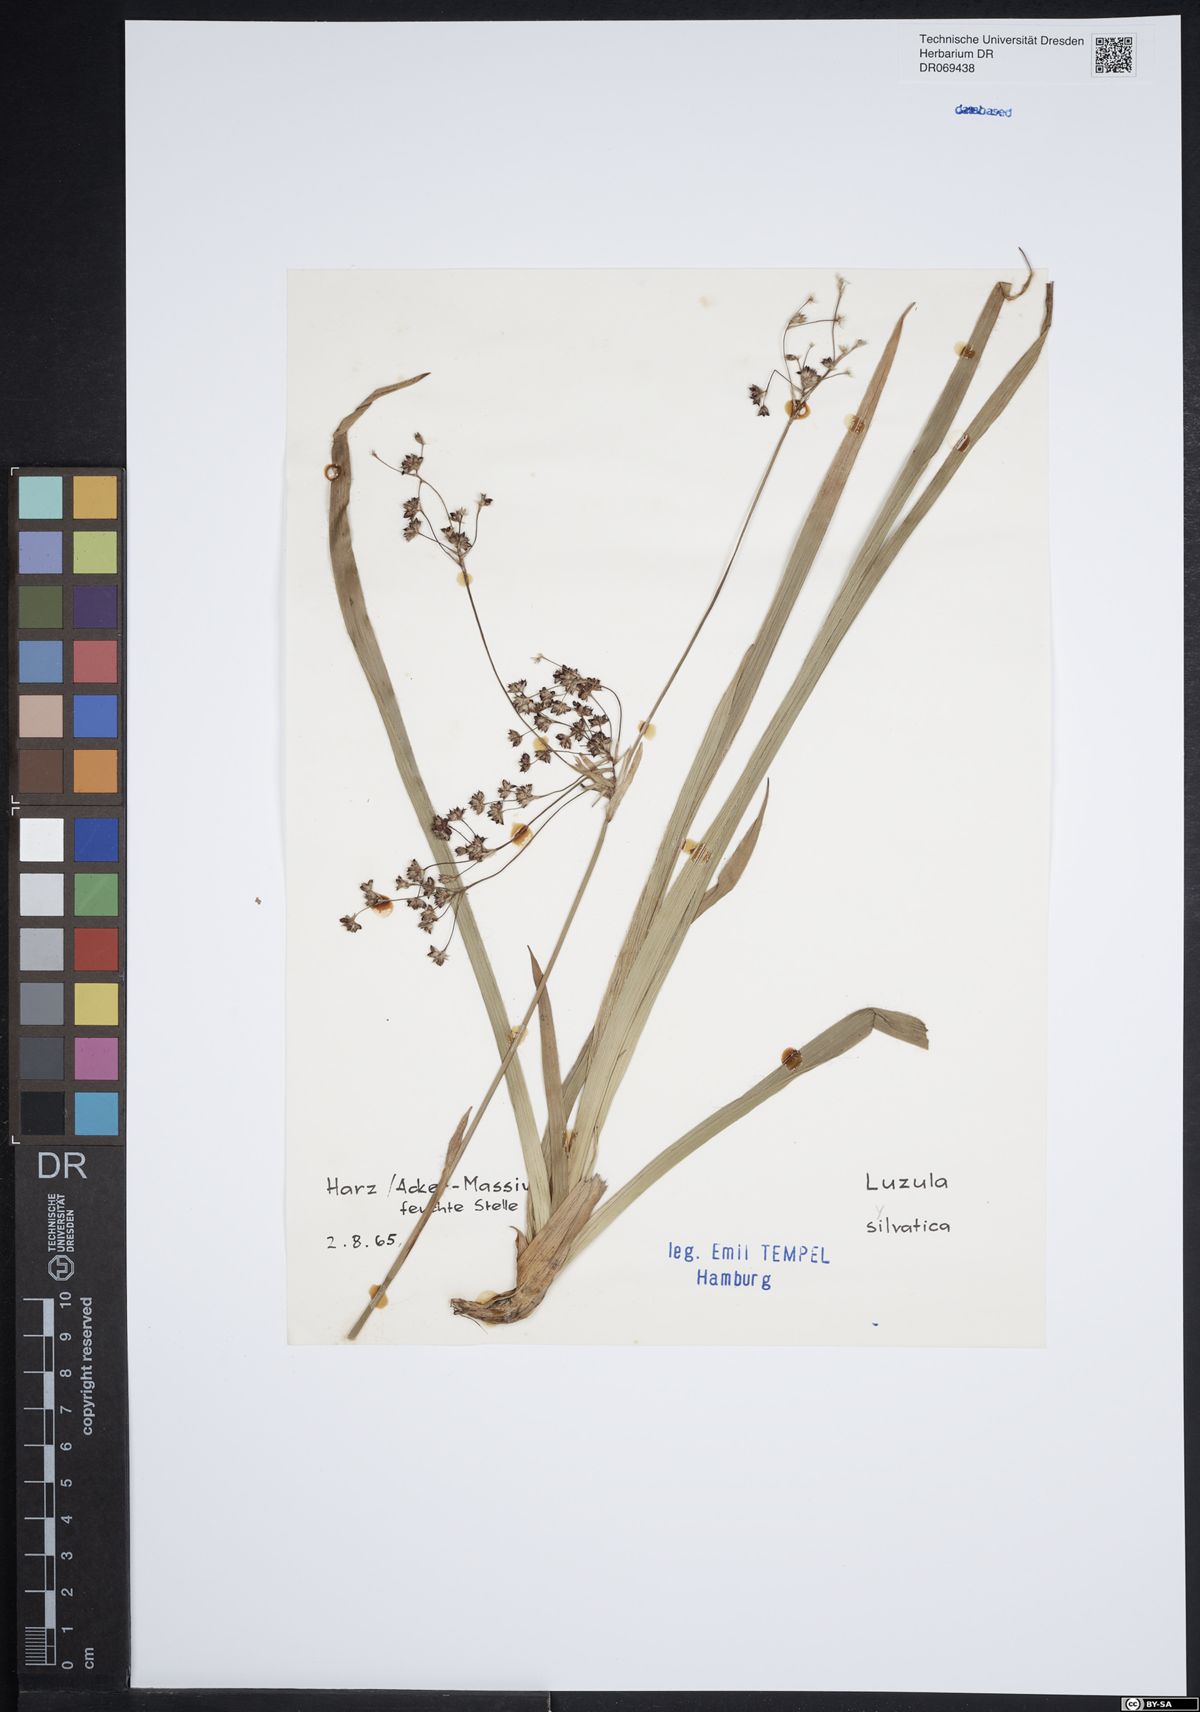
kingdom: Plantae
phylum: Tracheophyta
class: Liliopsida
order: Poales
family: Juncaceae
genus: Luzula
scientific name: Luzula sylvatica
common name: Great wood-rush
